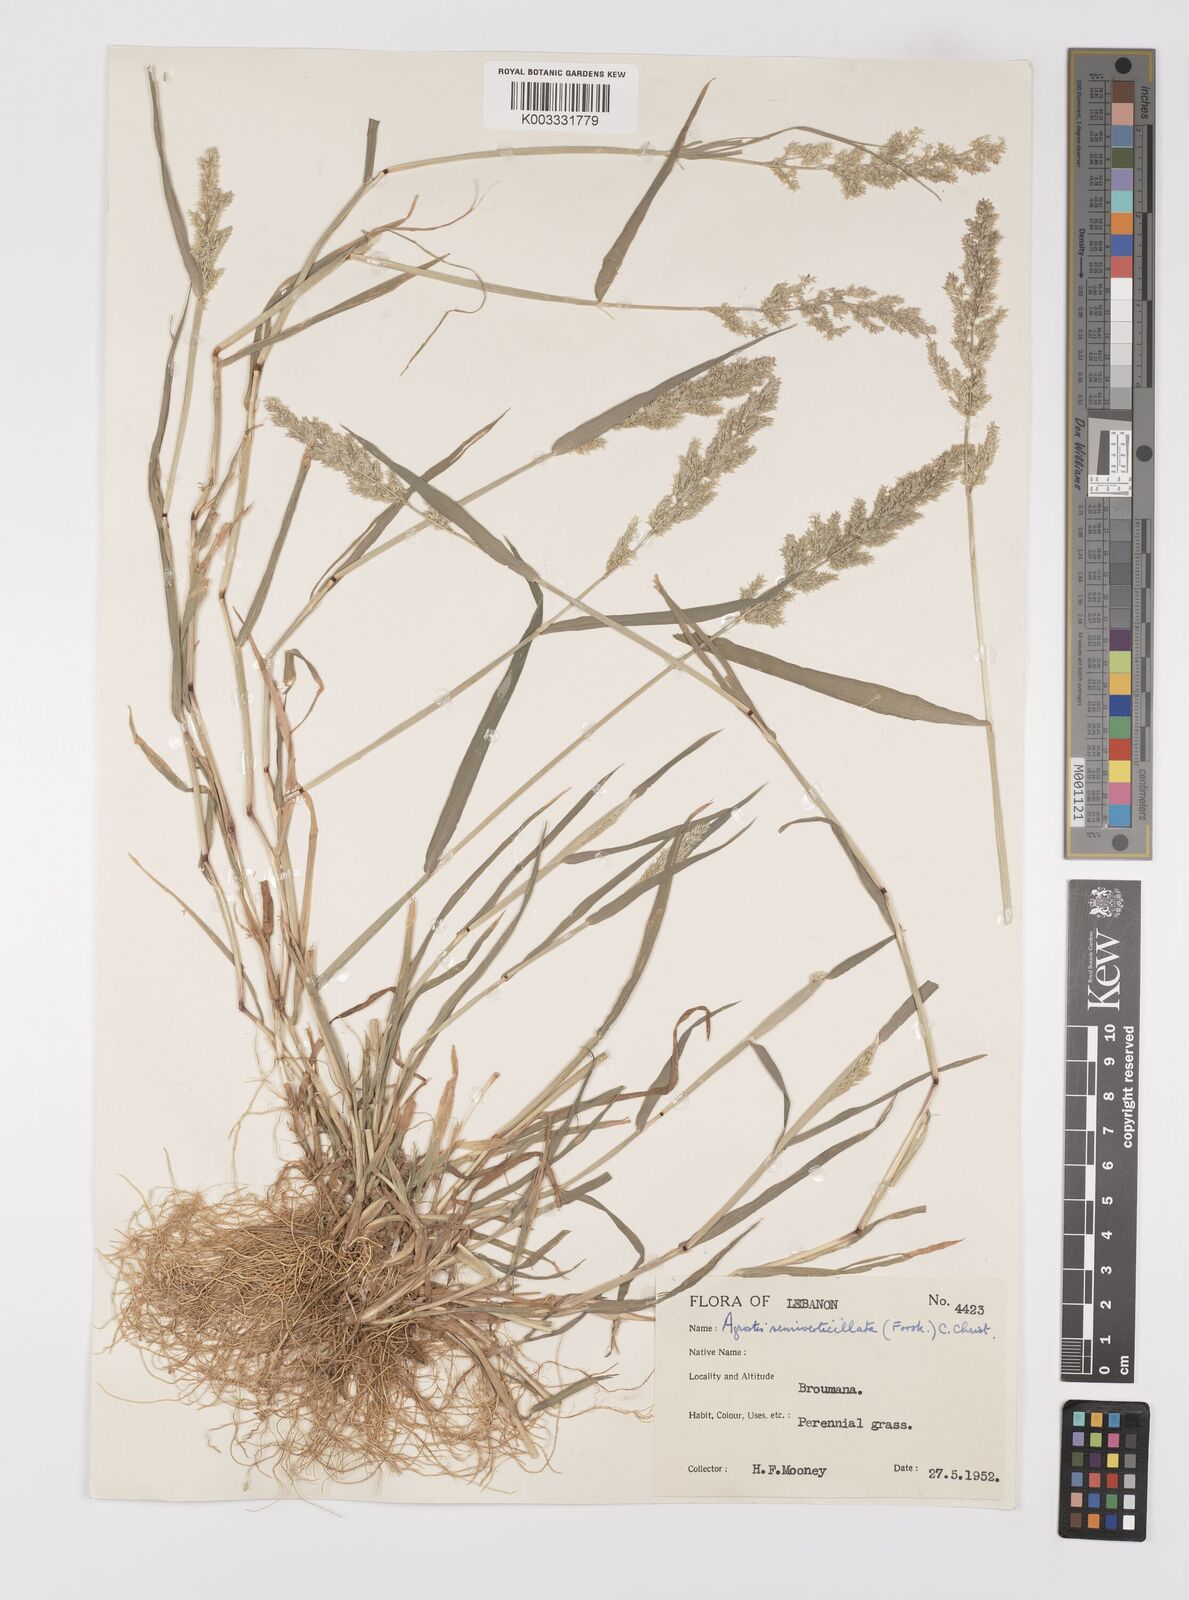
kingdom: Plantae
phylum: Tracheophyta
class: Liliopsida
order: Poales
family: Poaceae
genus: Polypogon
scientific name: Polypogon viridis
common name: Water bent
